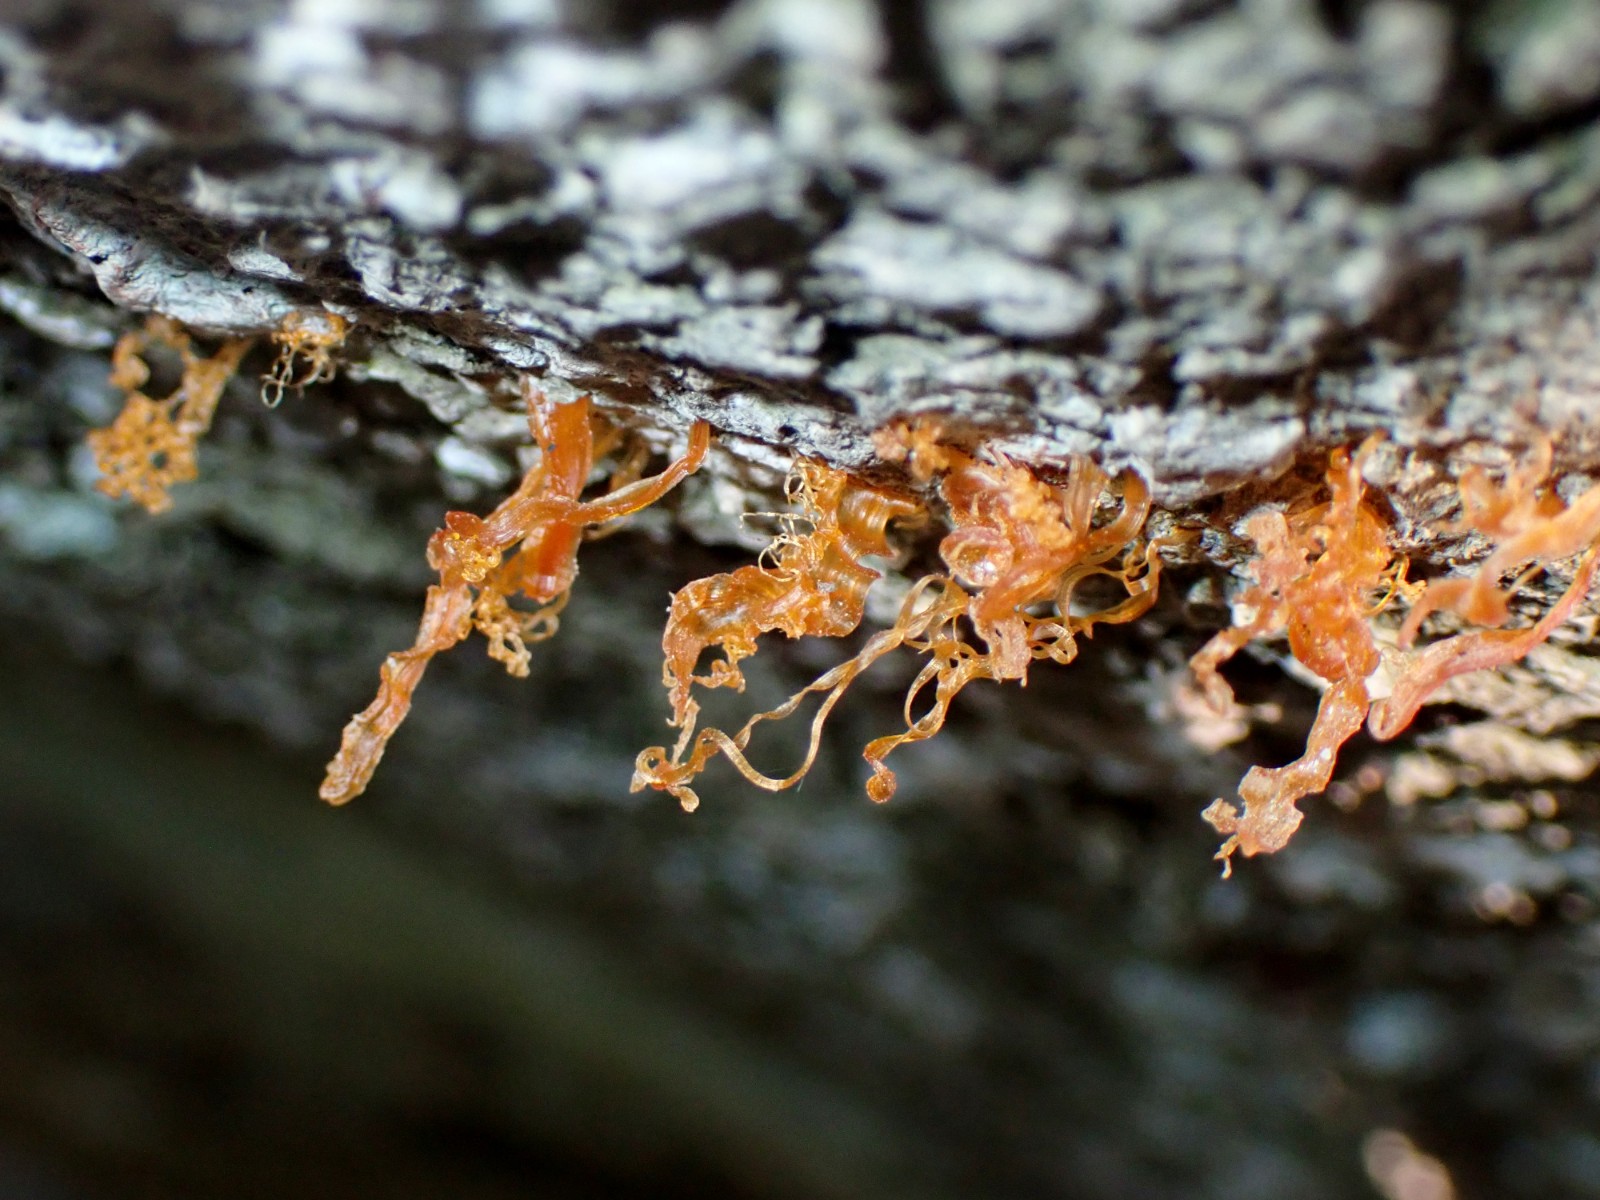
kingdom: Fungi
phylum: Ascomycota
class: Sordariomycetes
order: Xylariales
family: Diatrypaceae
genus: Eutypella
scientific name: Eutypella quaternata
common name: bøge-korsprik
